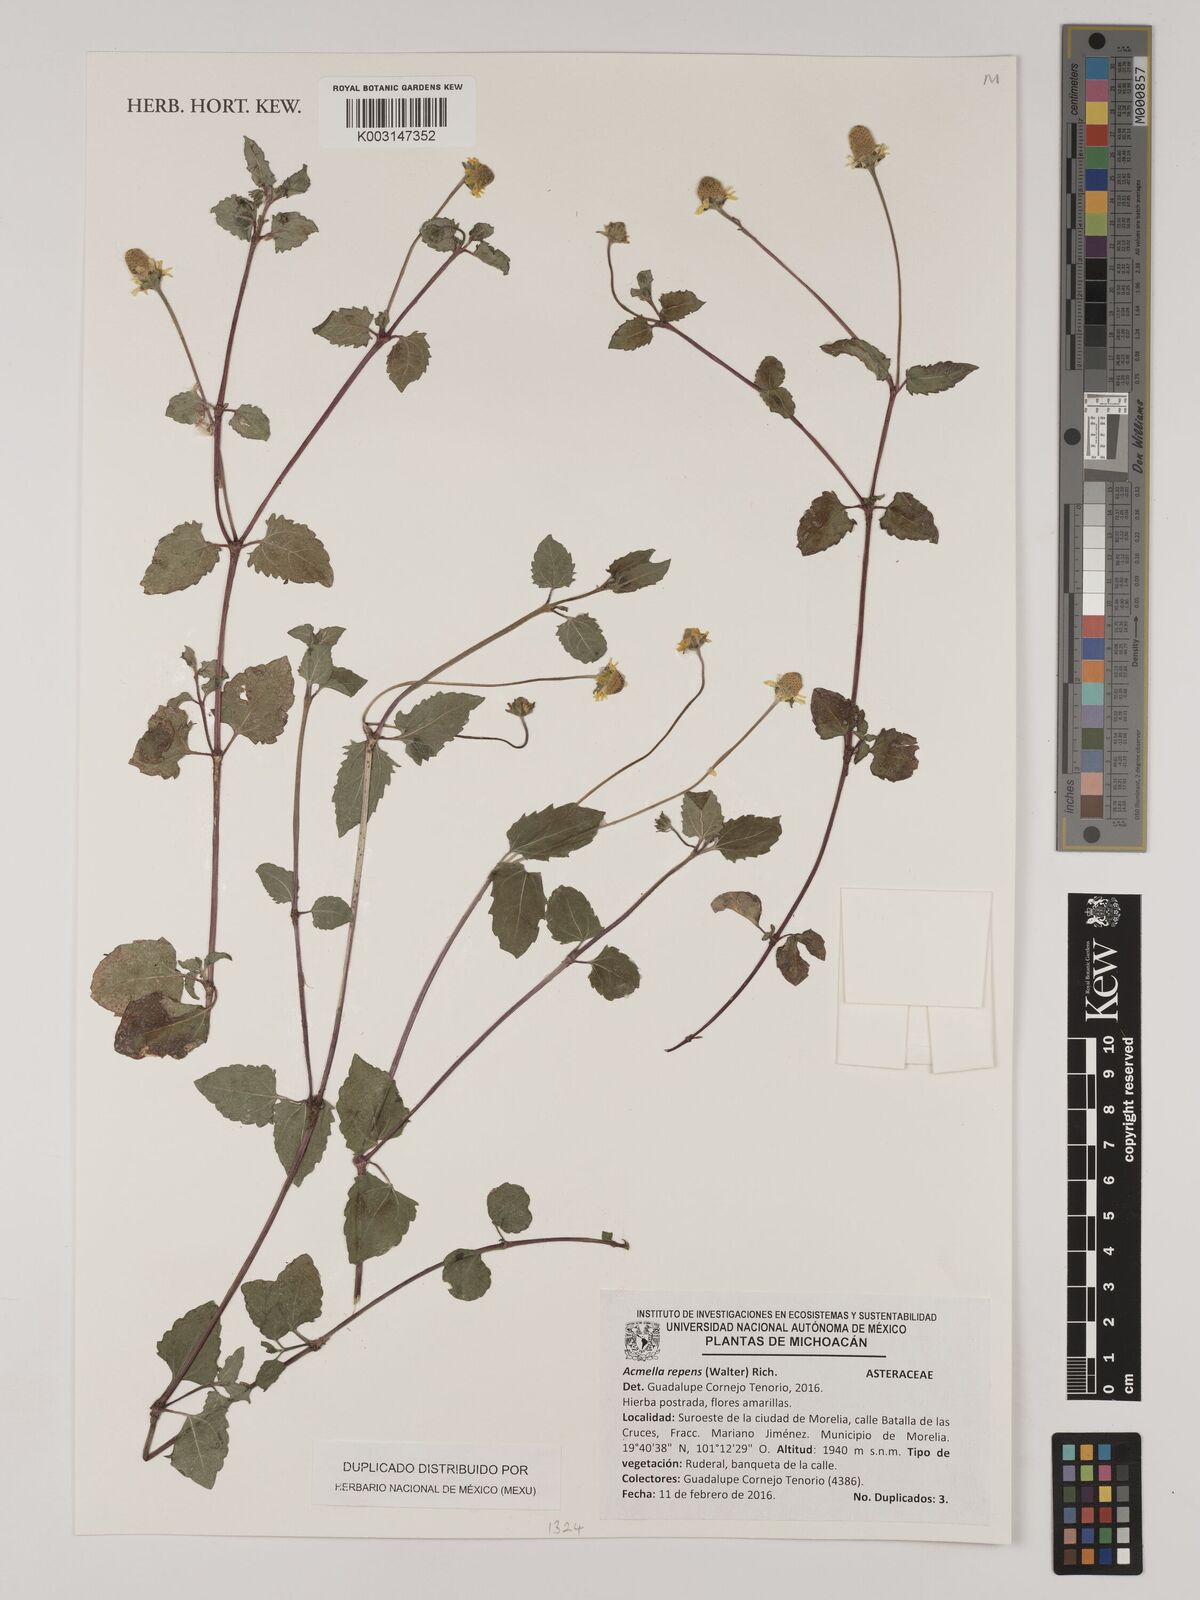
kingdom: Plantae
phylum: Tracheophyta
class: Magnoliopsida
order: Asterales
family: Asteraceae
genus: Acmella
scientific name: Acmella repens
